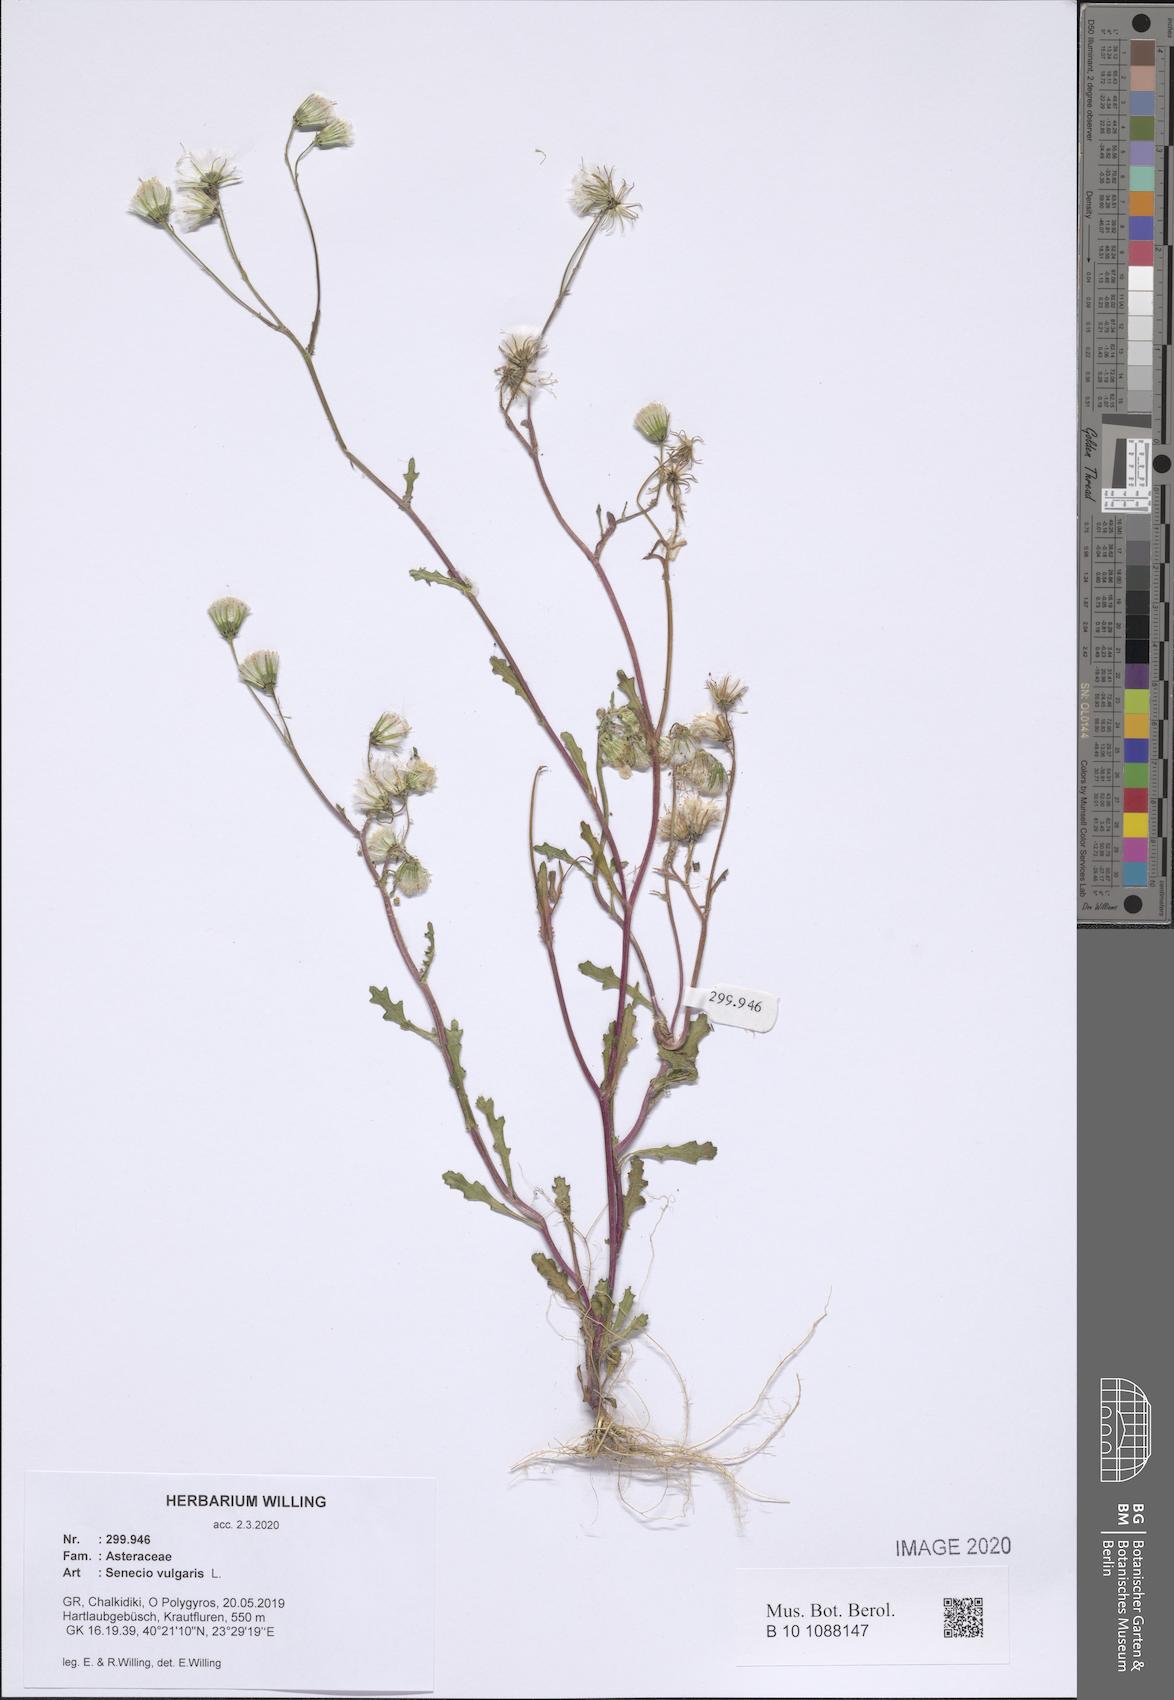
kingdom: Plantae
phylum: Tracheophyta
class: Magnoliopsida
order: Asterales
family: Asteraceae
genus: Senecio
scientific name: Senecio vulgaris
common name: Old-man-in-the-spring
